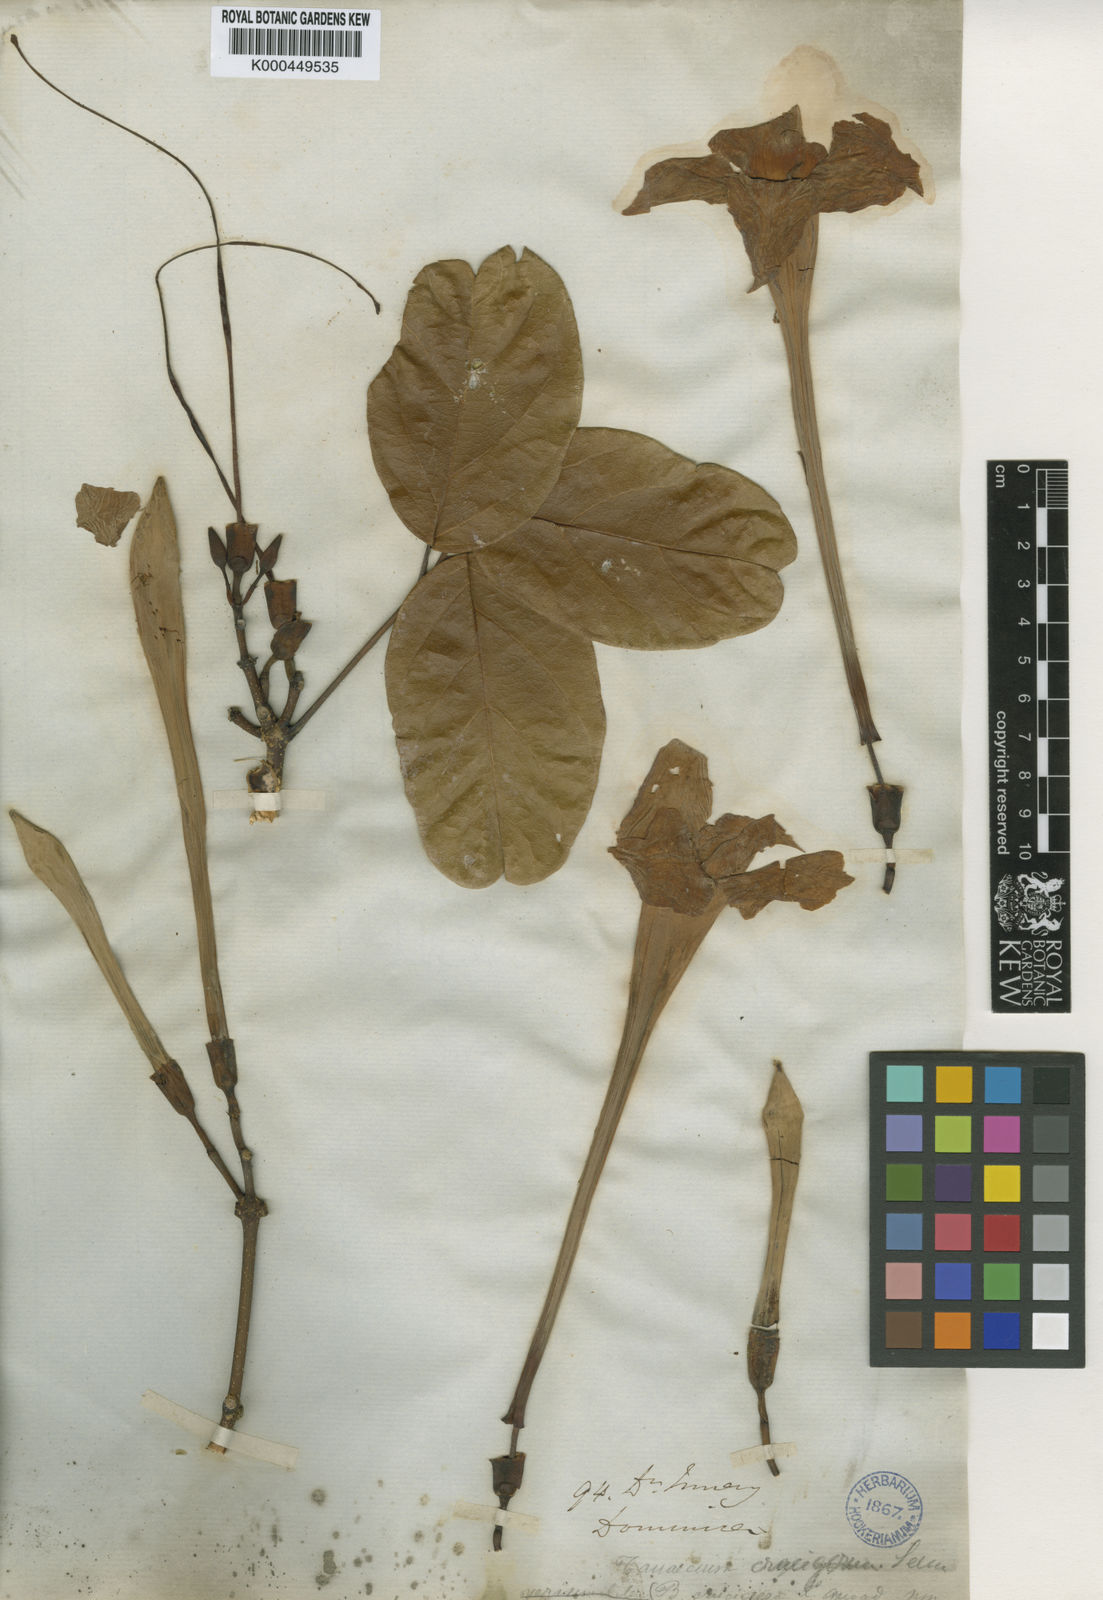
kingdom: Plantae
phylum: Tracheophyta
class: Magnoliopsida
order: Lamiales
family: Bignoniaceae
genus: Tanaecium
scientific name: Tanaecium crucigerum
